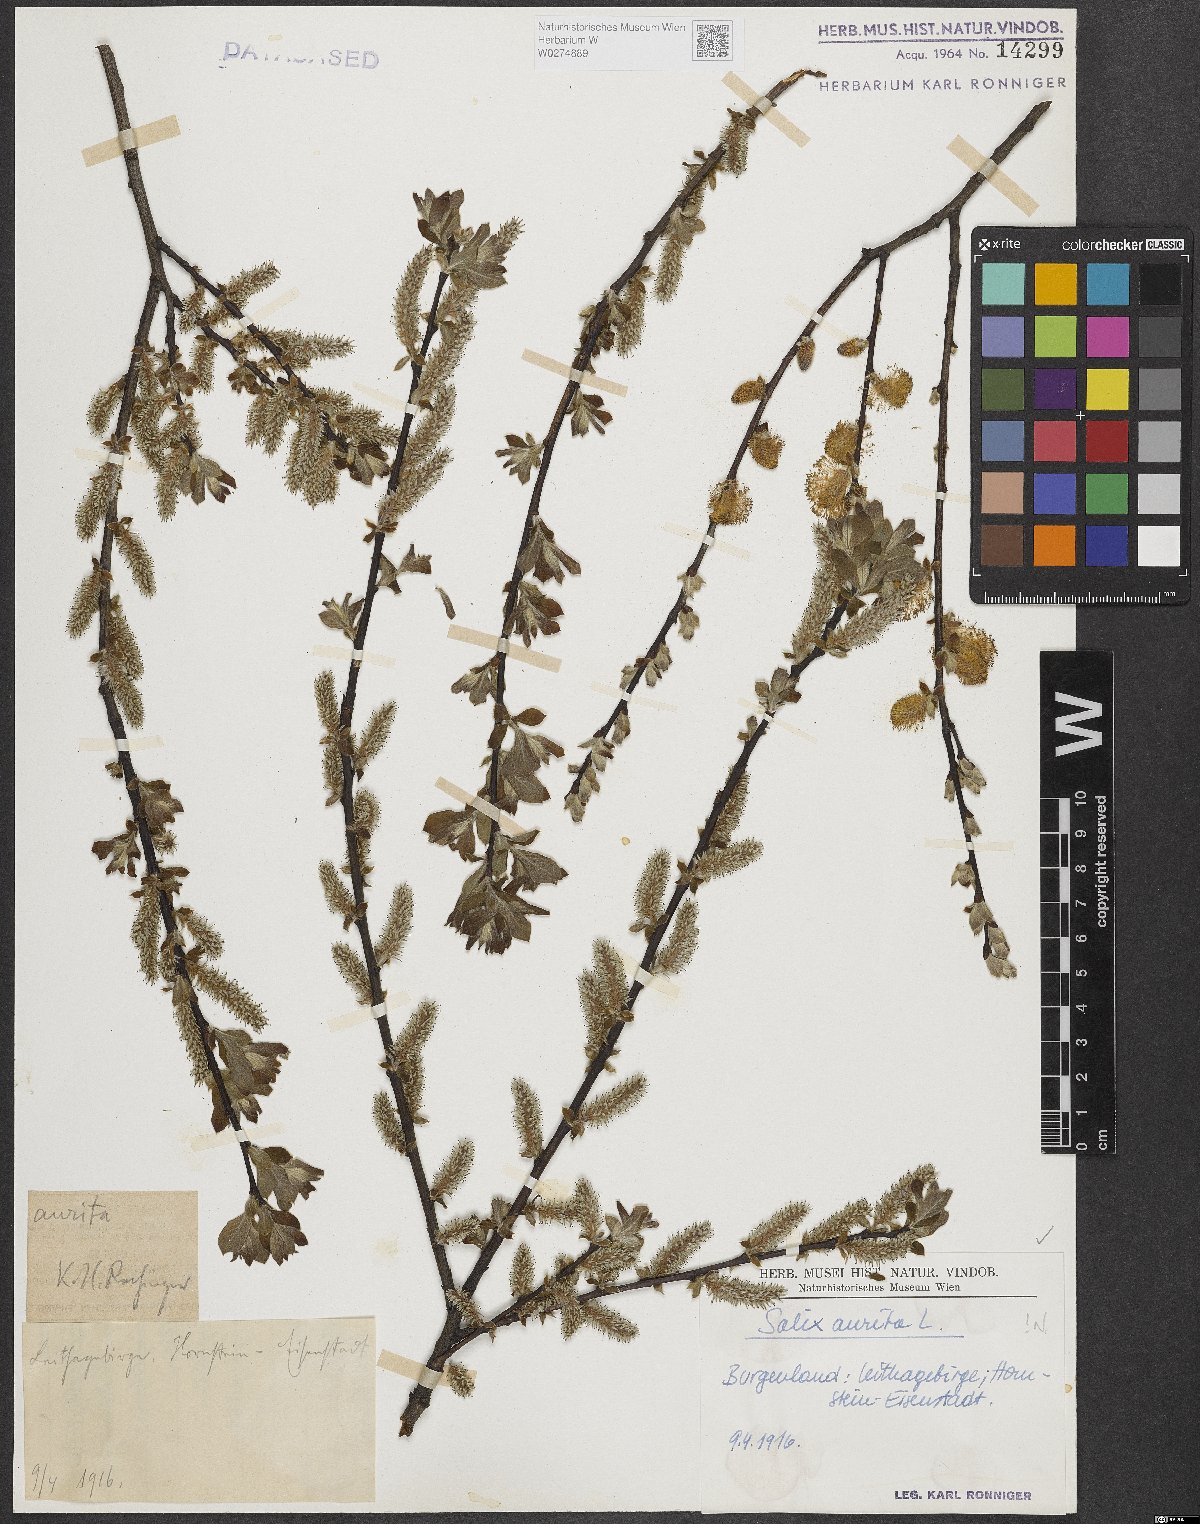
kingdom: Plantae
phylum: Tracheophyta
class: Magnoliopsida
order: Malpighiales
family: Salicaceae
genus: Salix
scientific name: Salix aurita
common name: Eared willow
